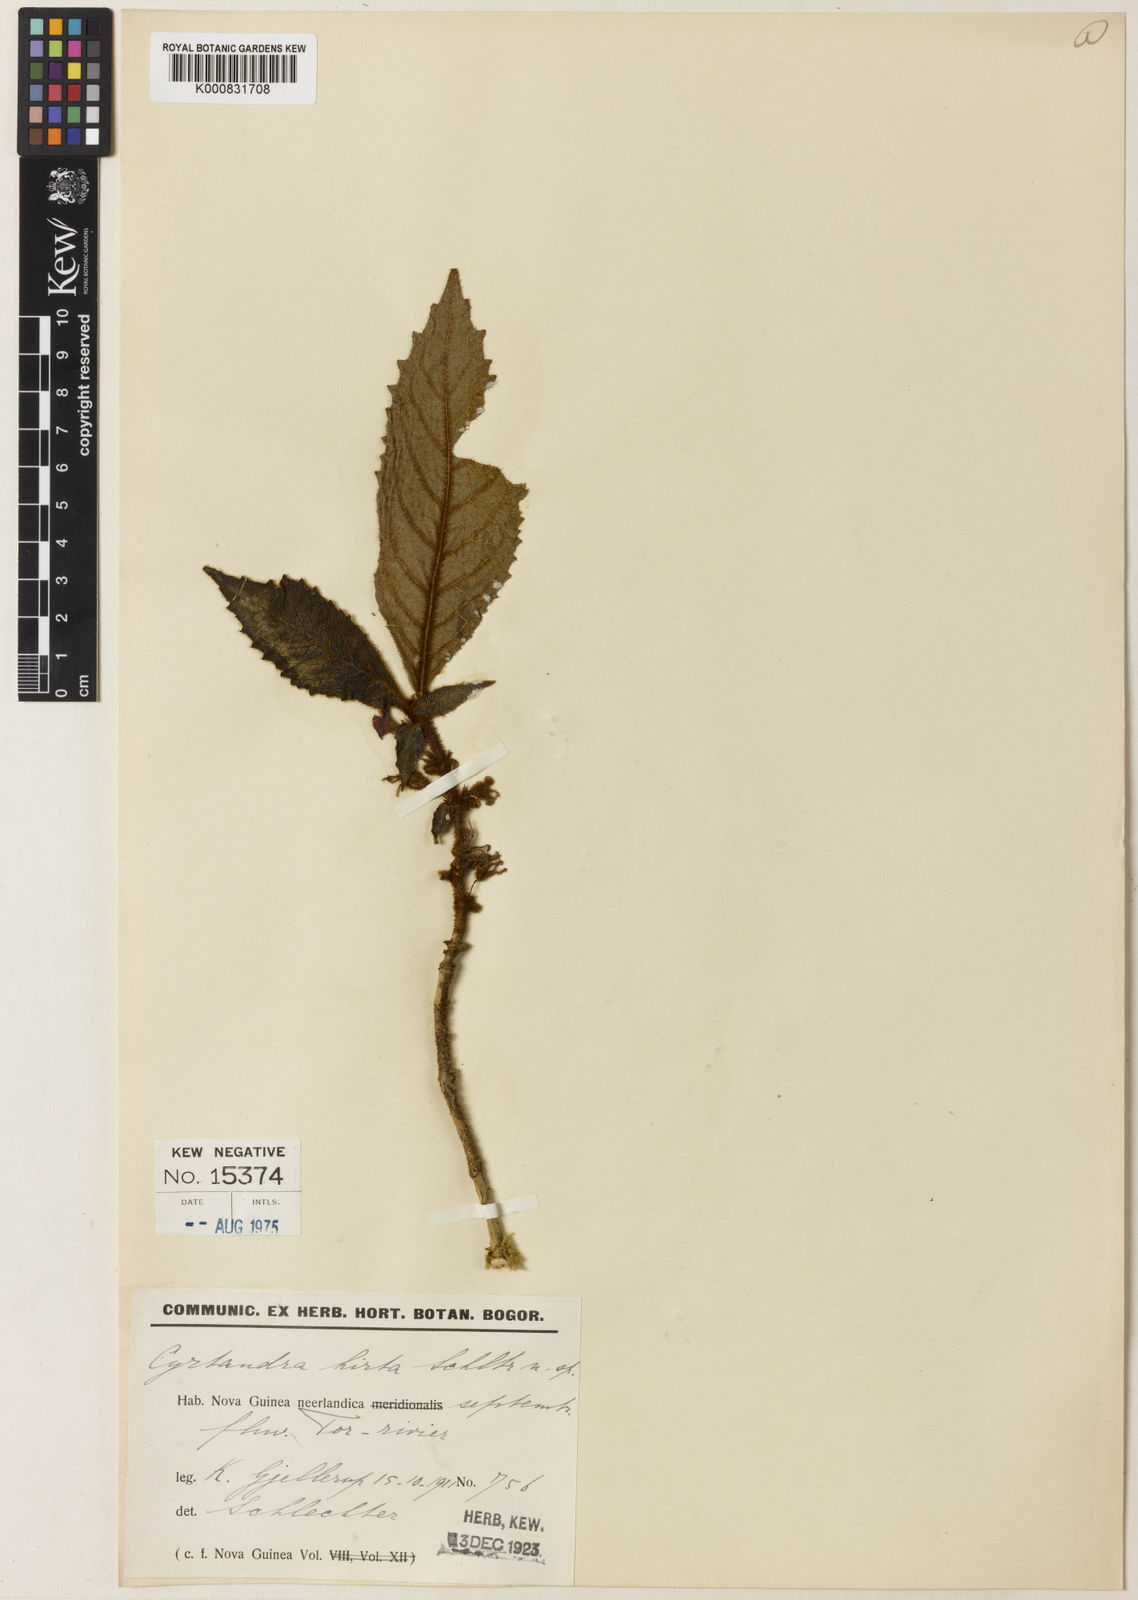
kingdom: Plantae
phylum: Tracheophyta
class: Magnoliopsida
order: Lamiales
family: Gesneriaceae
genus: Cyrtandra
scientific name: Cyrtandra hirta
